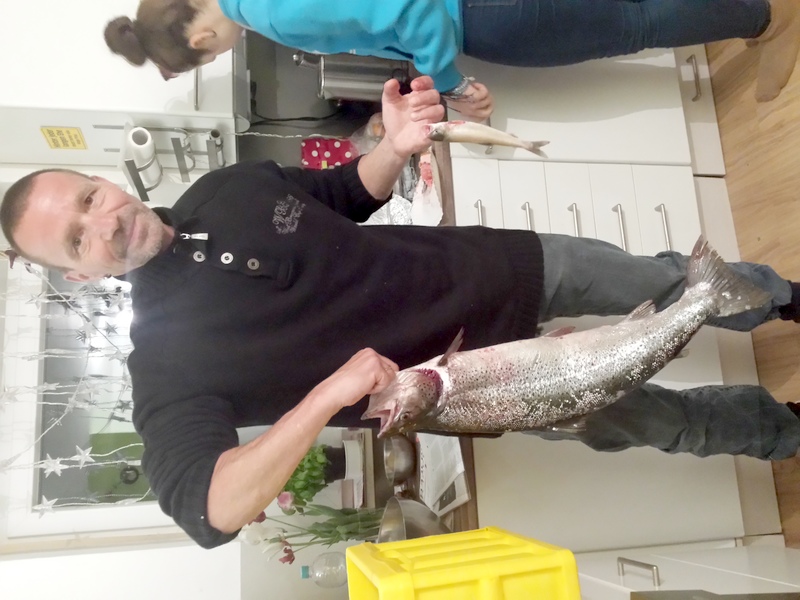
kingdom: Animalia
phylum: Chordata
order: Salmoniformes
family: Salmonidae
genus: Salmo
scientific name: Salmo trutta
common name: Brown trout
